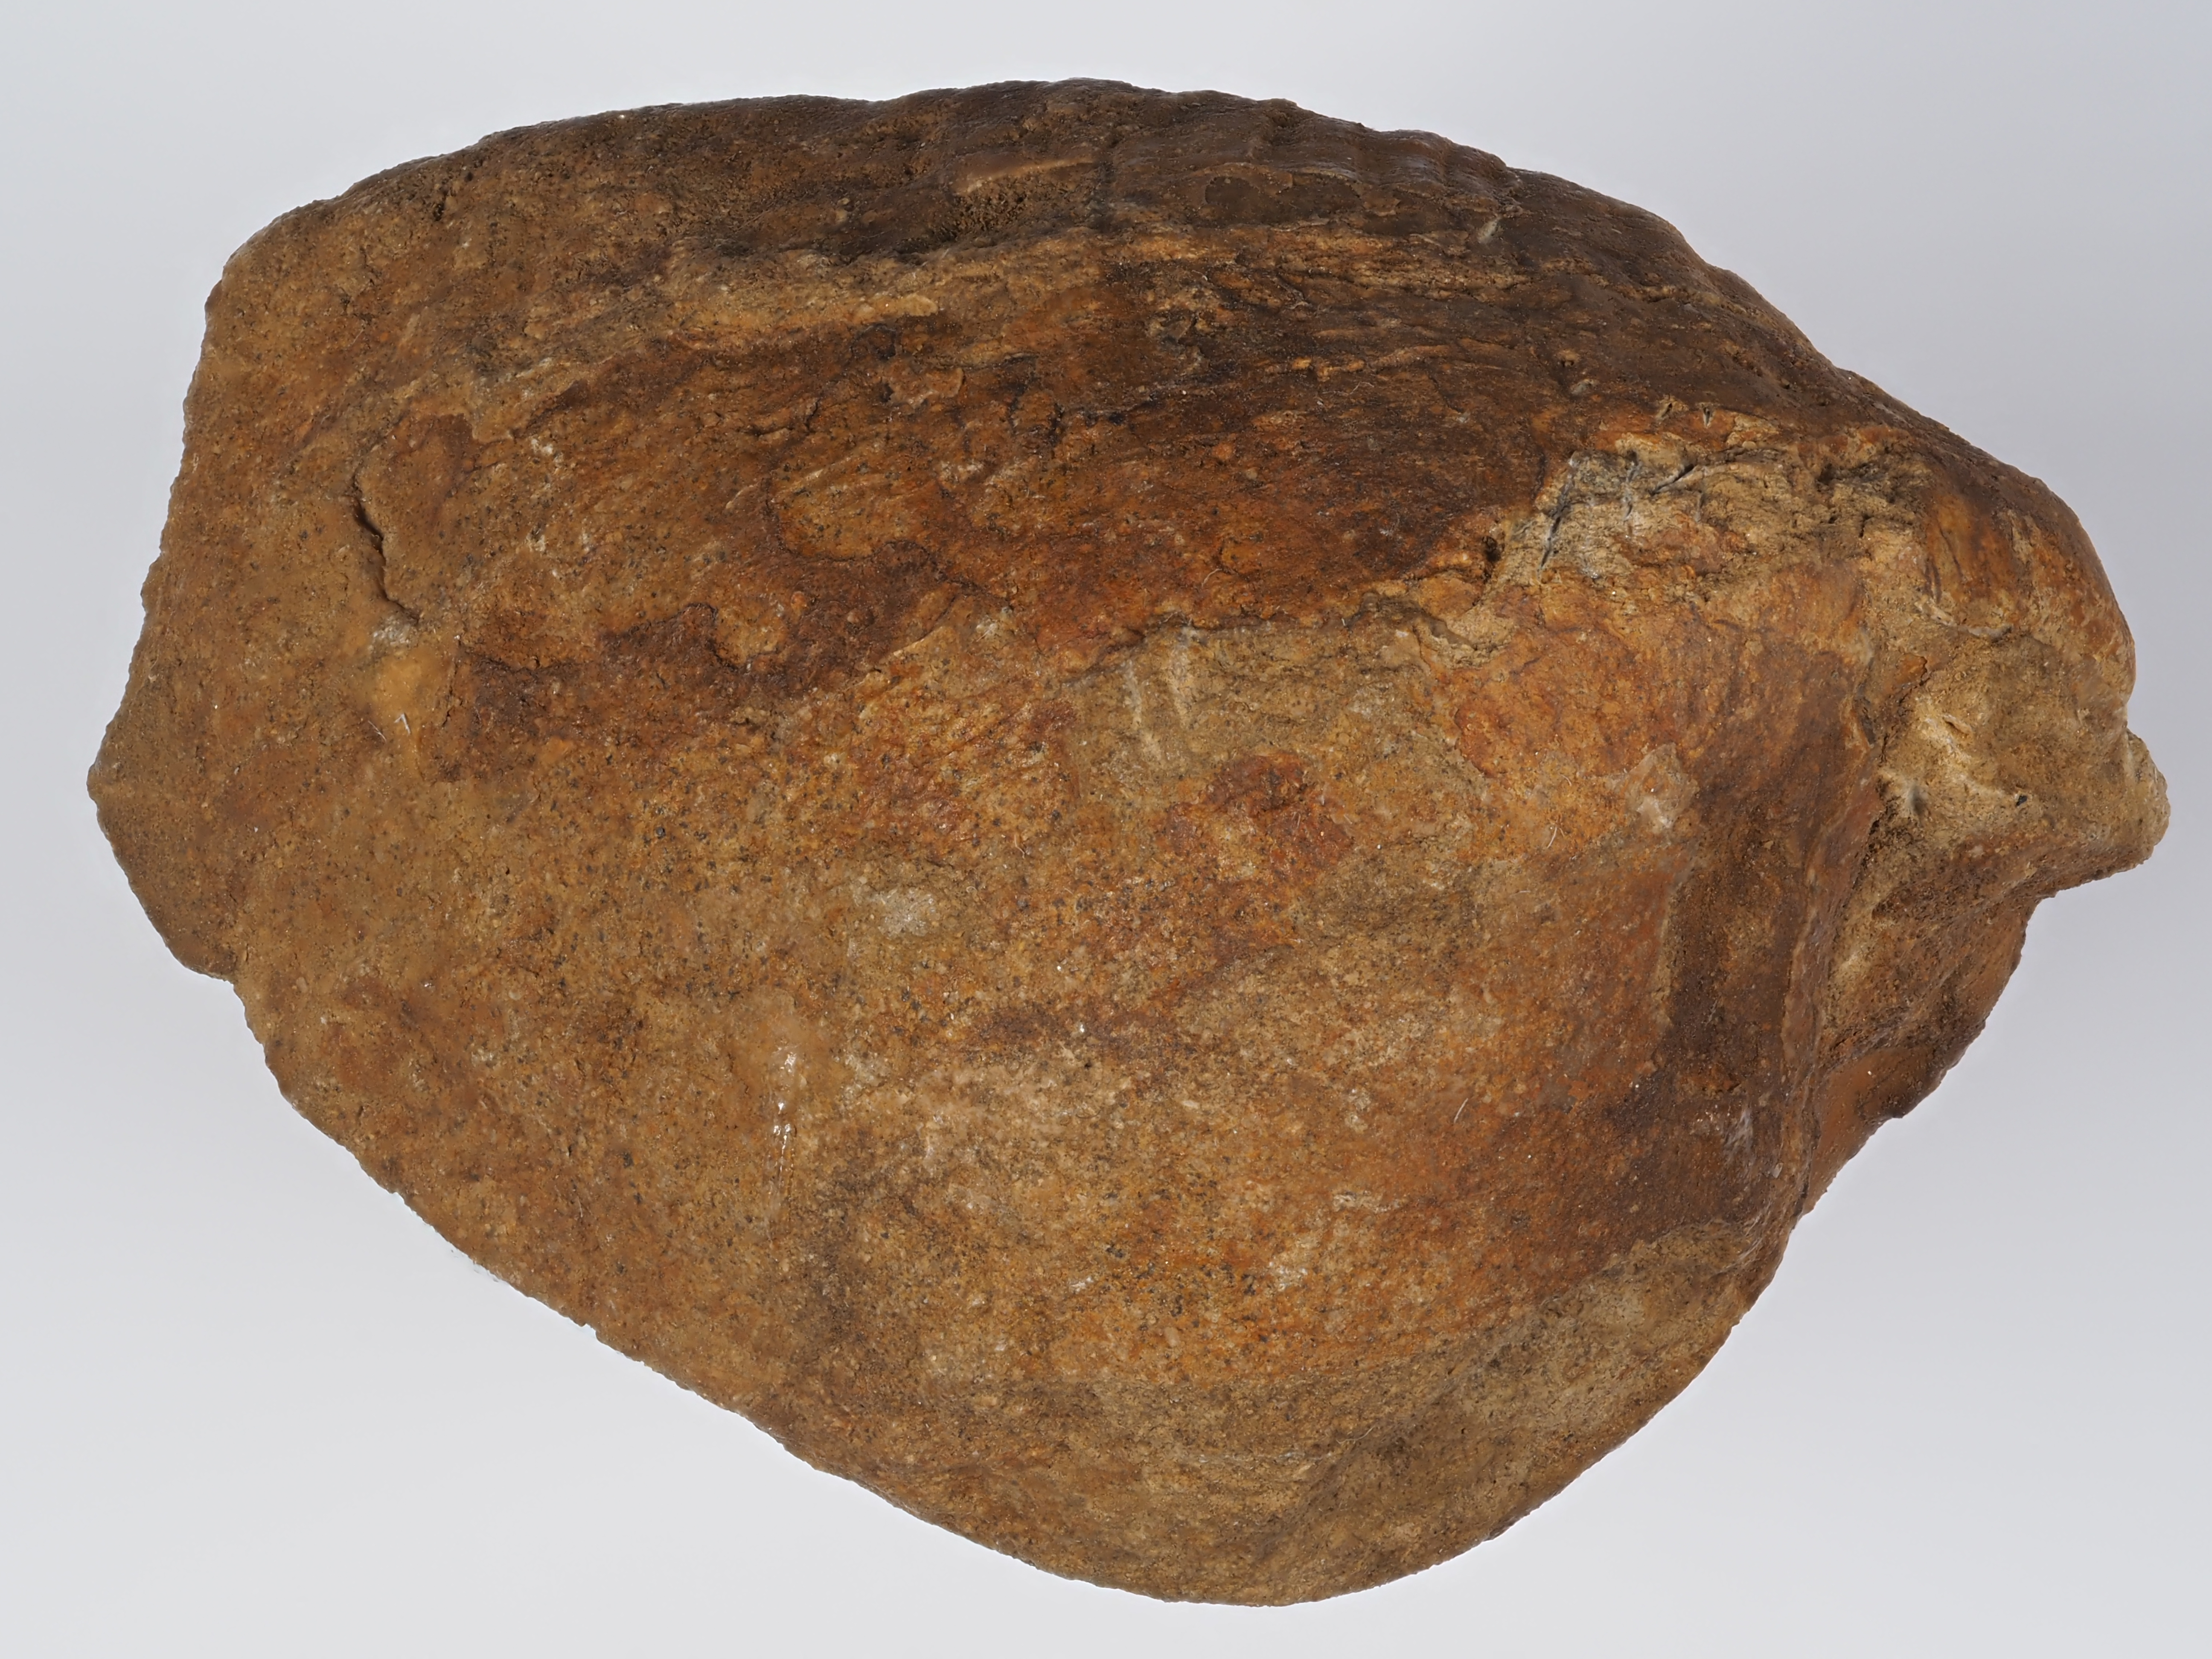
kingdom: Animalia
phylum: Mollusca
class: Bivalvia
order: Myida
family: Ceratomyidae
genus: Gresslya
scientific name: Gresslya
